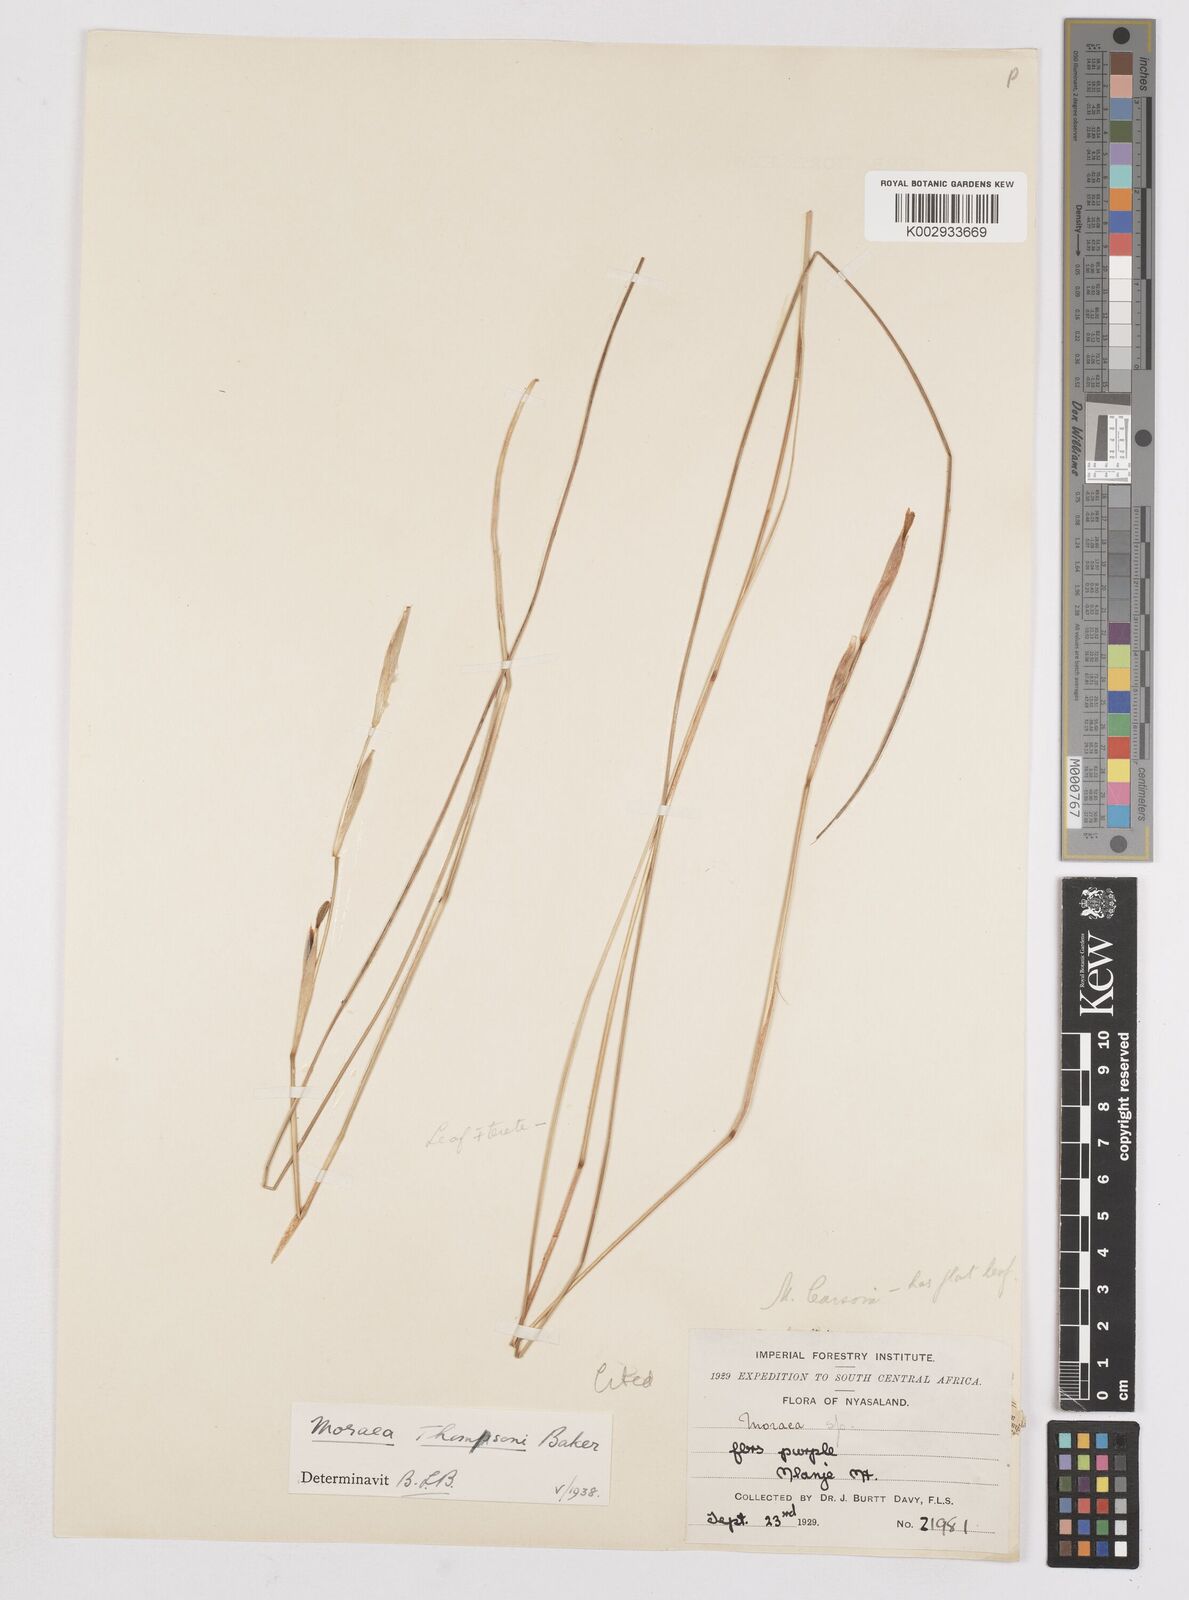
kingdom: Plantae
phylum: Tracheophyta
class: Liliopsida
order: Asparagales
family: Iridaceae
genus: Moraea
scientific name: Moraea thomsonii
